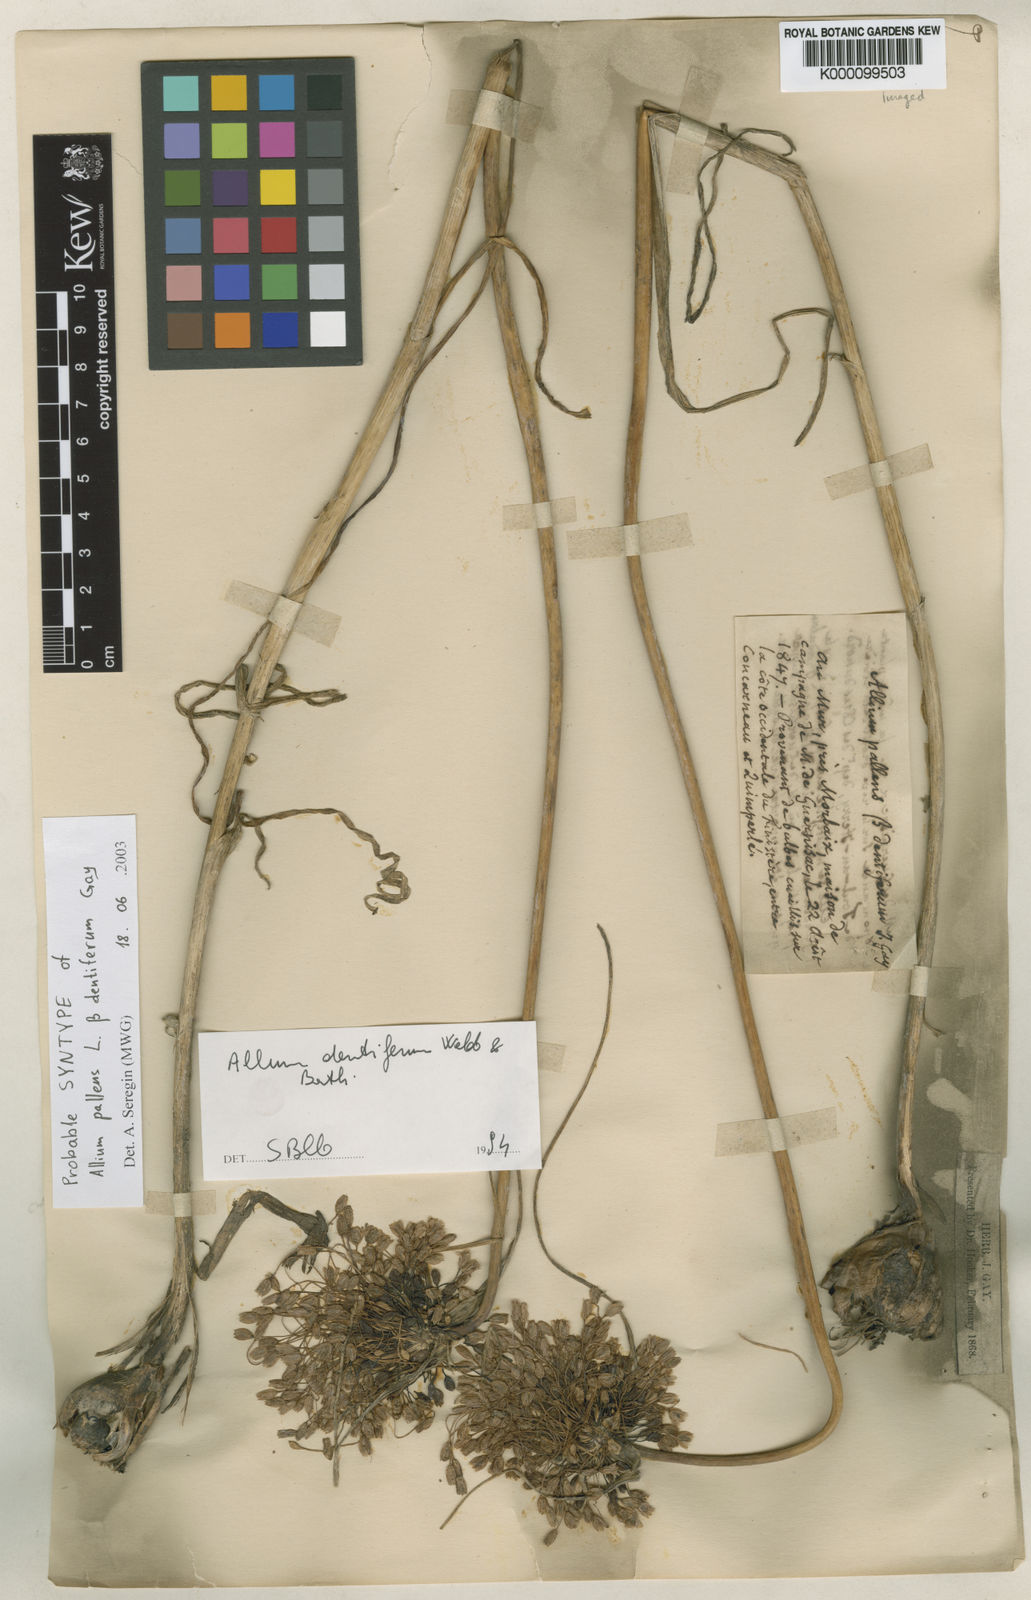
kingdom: Plantae
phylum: Tracheophyta
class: Liliopsida
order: Asparagales
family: Amaryllidaceae
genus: Allium
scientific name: Allium longispathum
